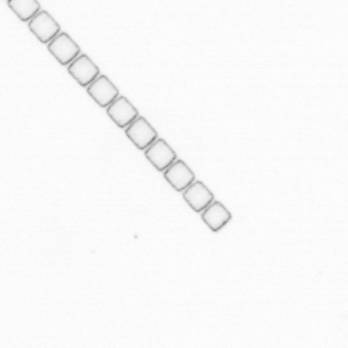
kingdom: Chromista
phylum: Ochrophyta
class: Bacillariophyceae
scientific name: Bacillariophyceae
